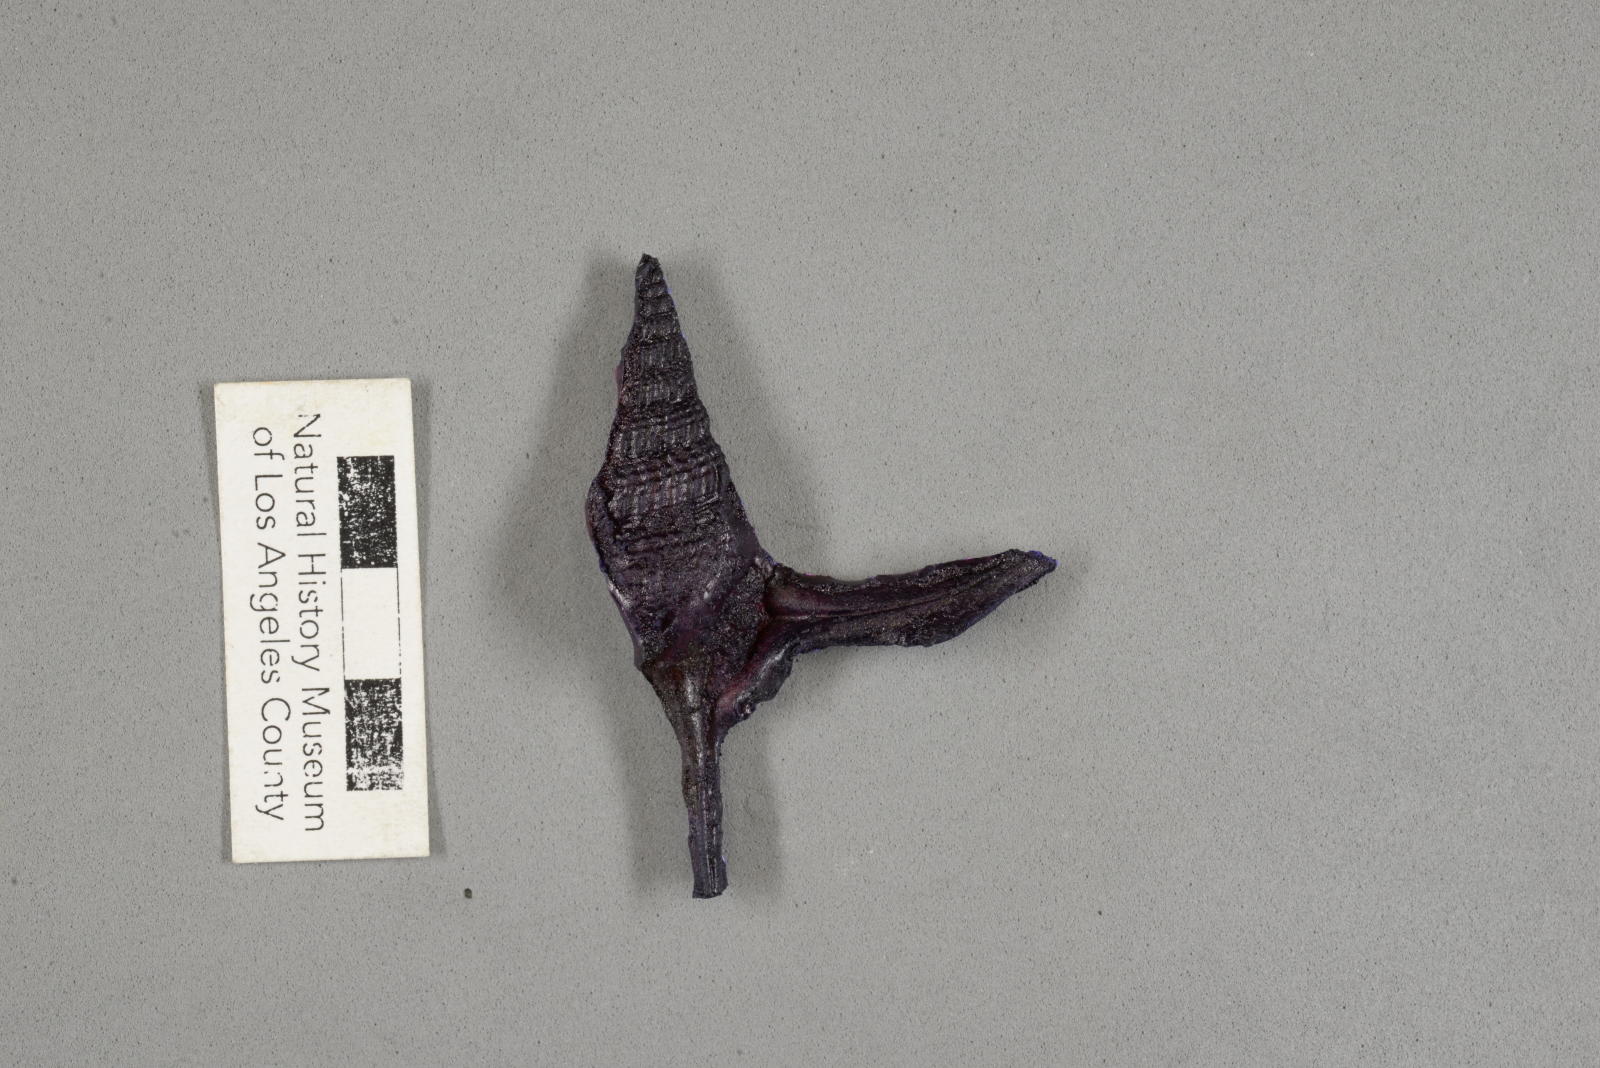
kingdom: Animalia
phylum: Mollusca
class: Gastropoda
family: Procerithiidae
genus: Procerithium
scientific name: Procerithium Uchauxia beali
